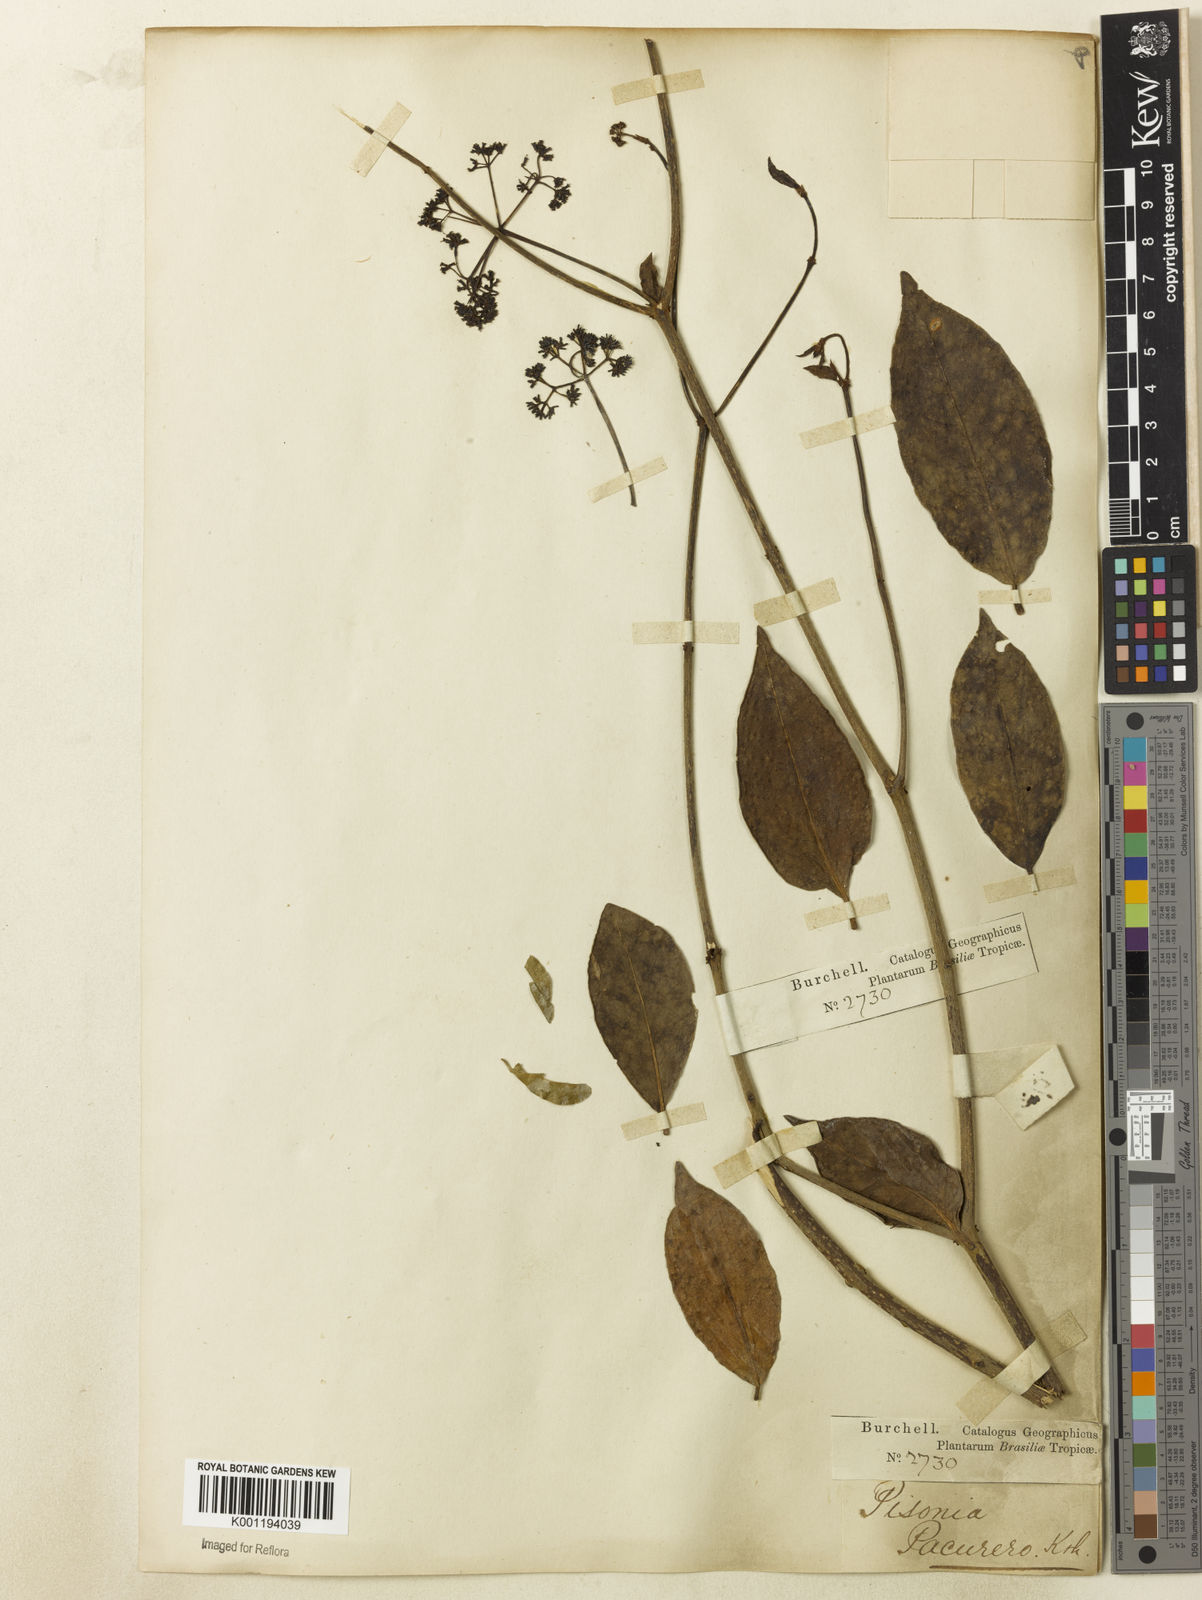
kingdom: Plantae
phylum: Tracheophyta
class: Magnoliopsida
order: Caryophyllales
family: Nyctaginaceae
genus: Guapira
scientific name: Guapira
